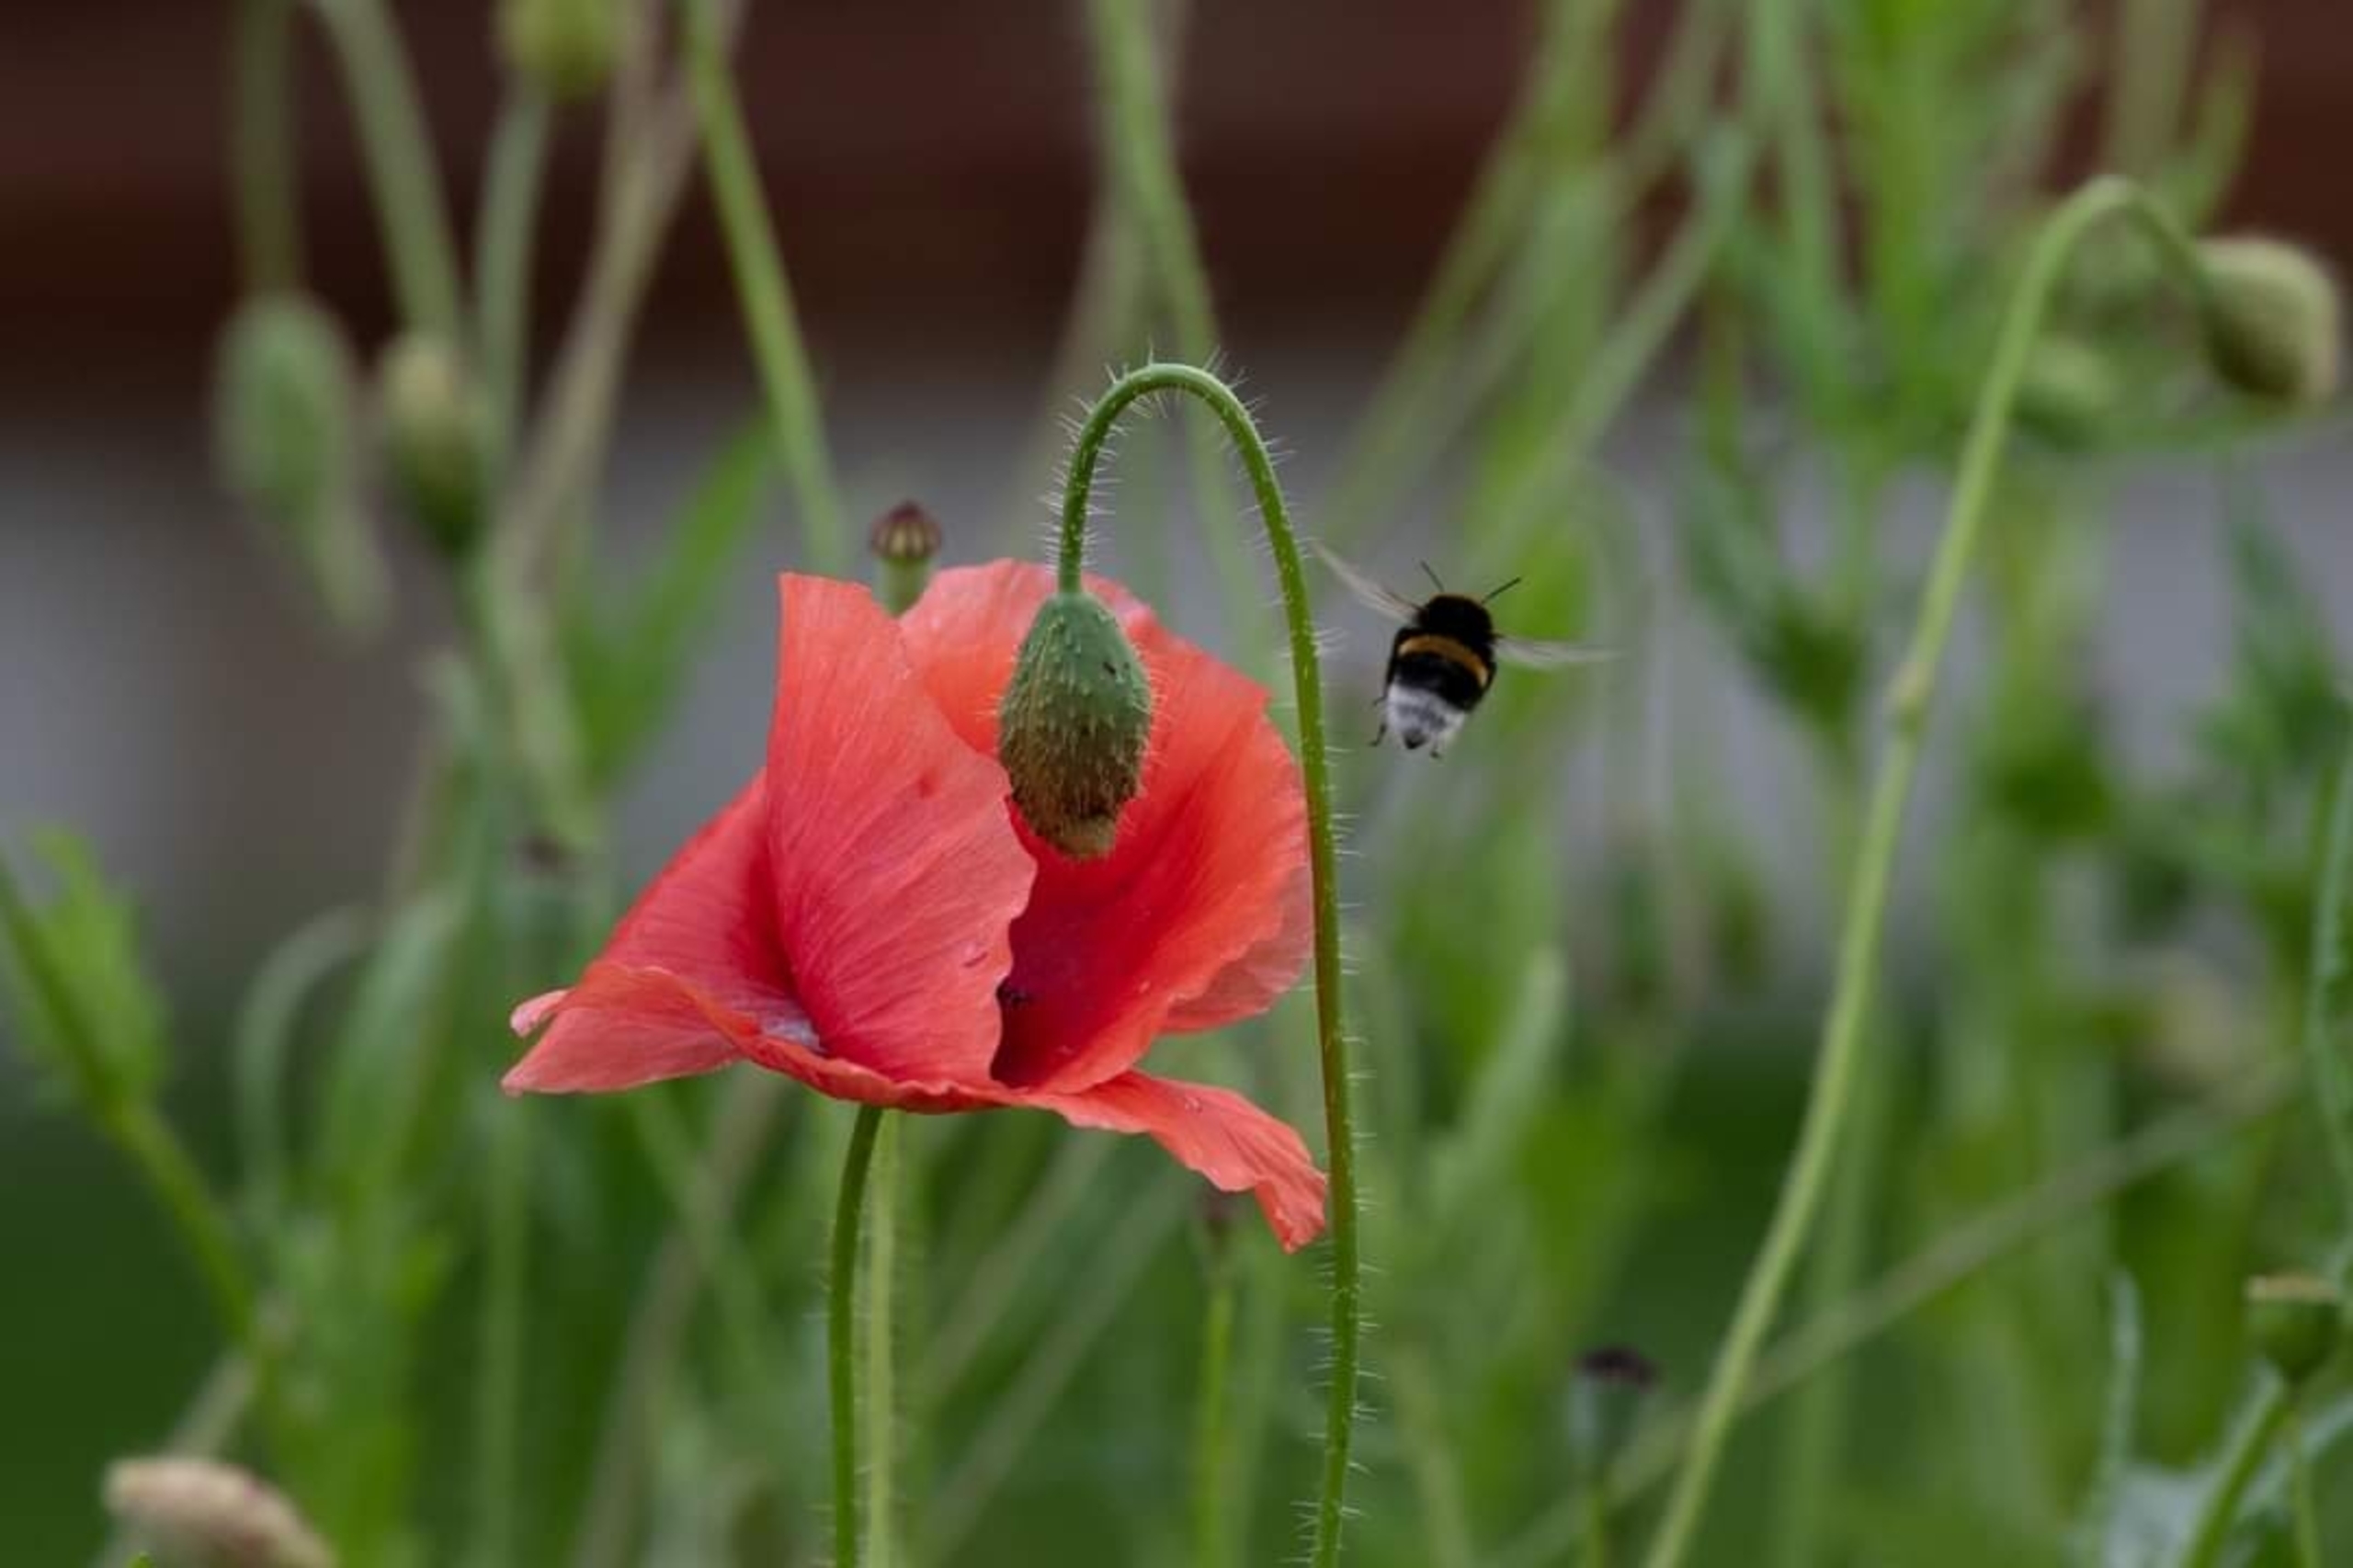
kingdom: Animalia
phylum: Arthropoda
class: Insecta
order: Hymenoptera
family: Apidae
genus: Bombus
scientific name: Bombus
